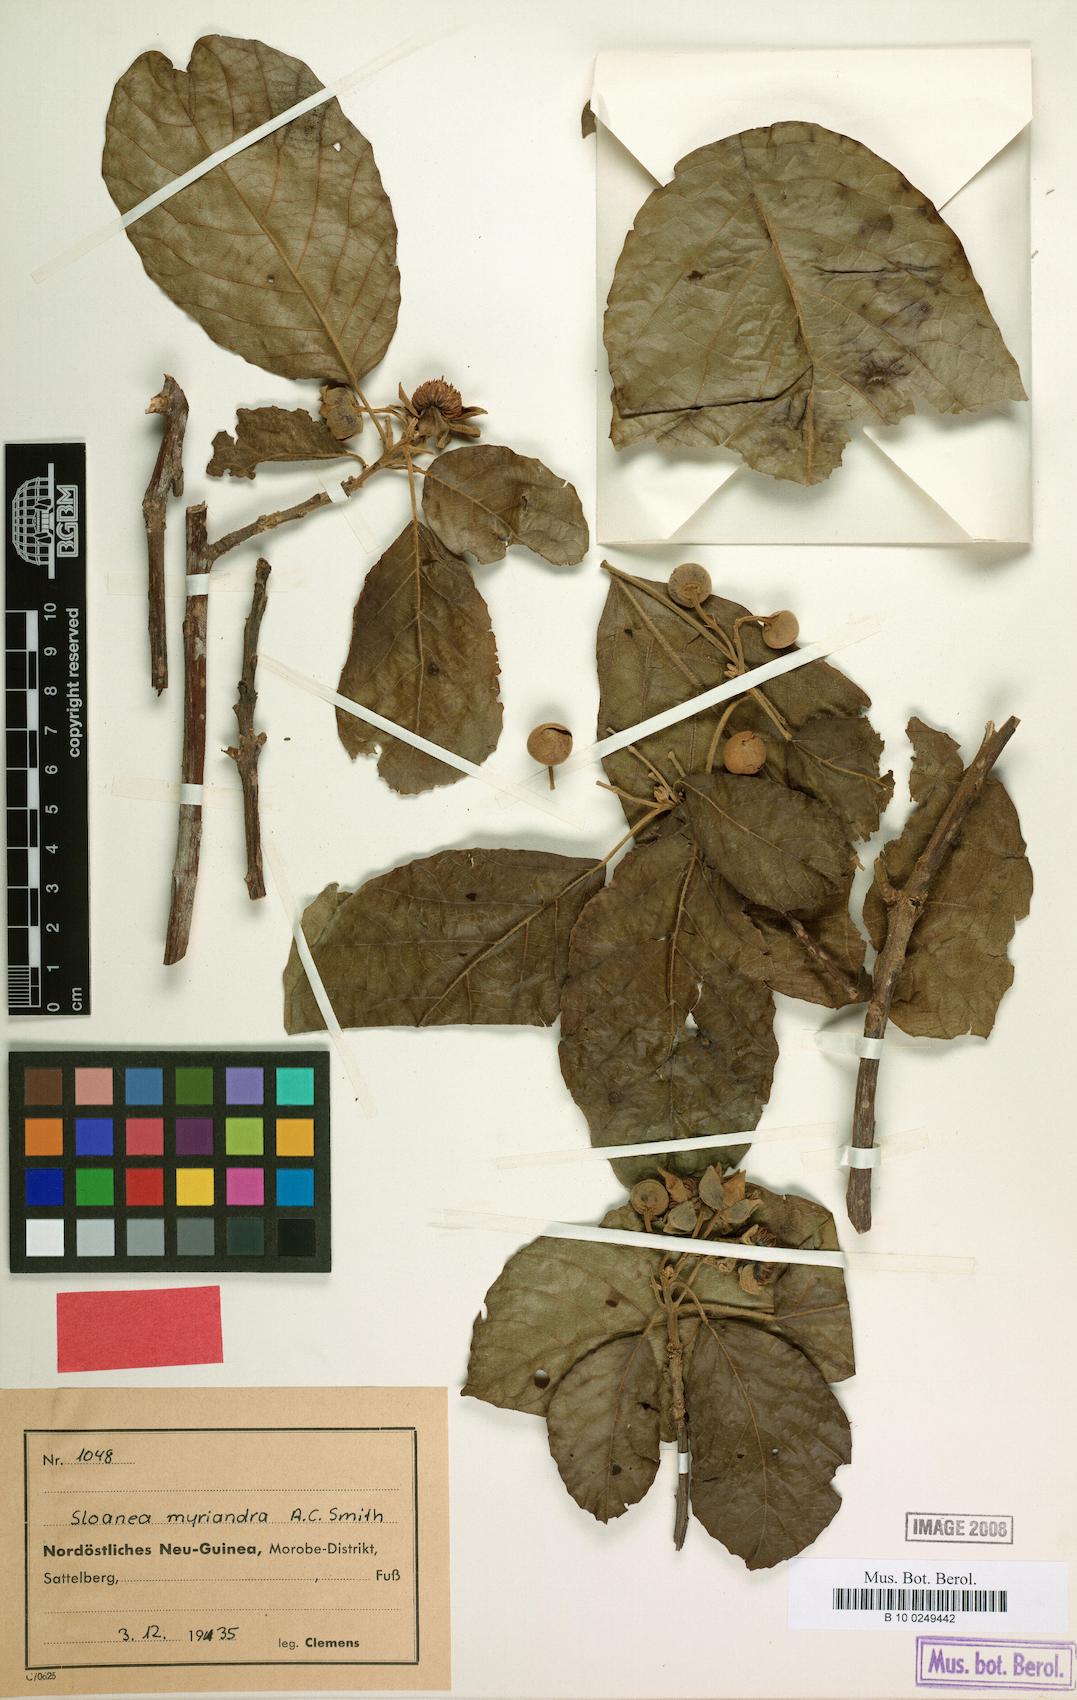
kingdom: Plantae
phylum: Tracheophyta
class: Magnoliopsida
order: Oxalidales
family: Elaeocarpaceae
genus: Sloanea
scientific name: Sloanea paradisearum
